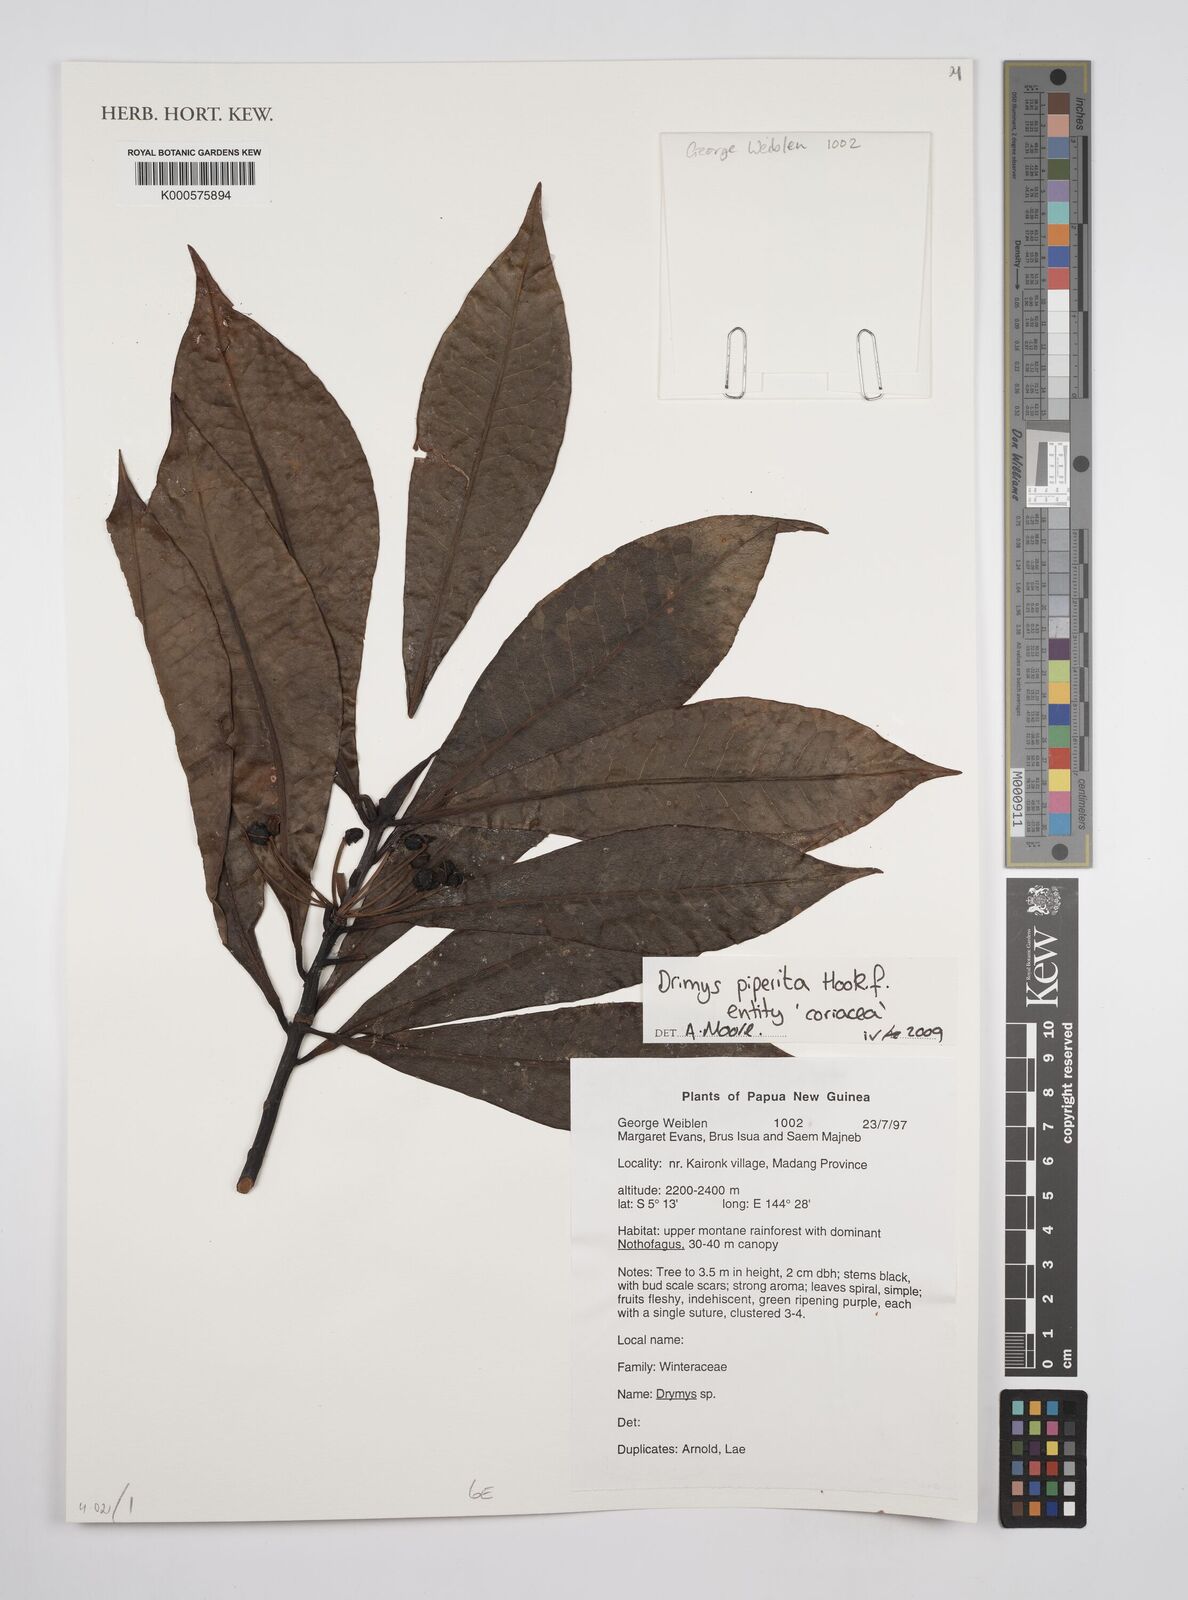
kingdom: Plantae
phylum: Tracheophyta
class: Magnoliopsida
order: Canellales
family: Winteraceae
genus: Drimys
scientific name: Drimys piperita
